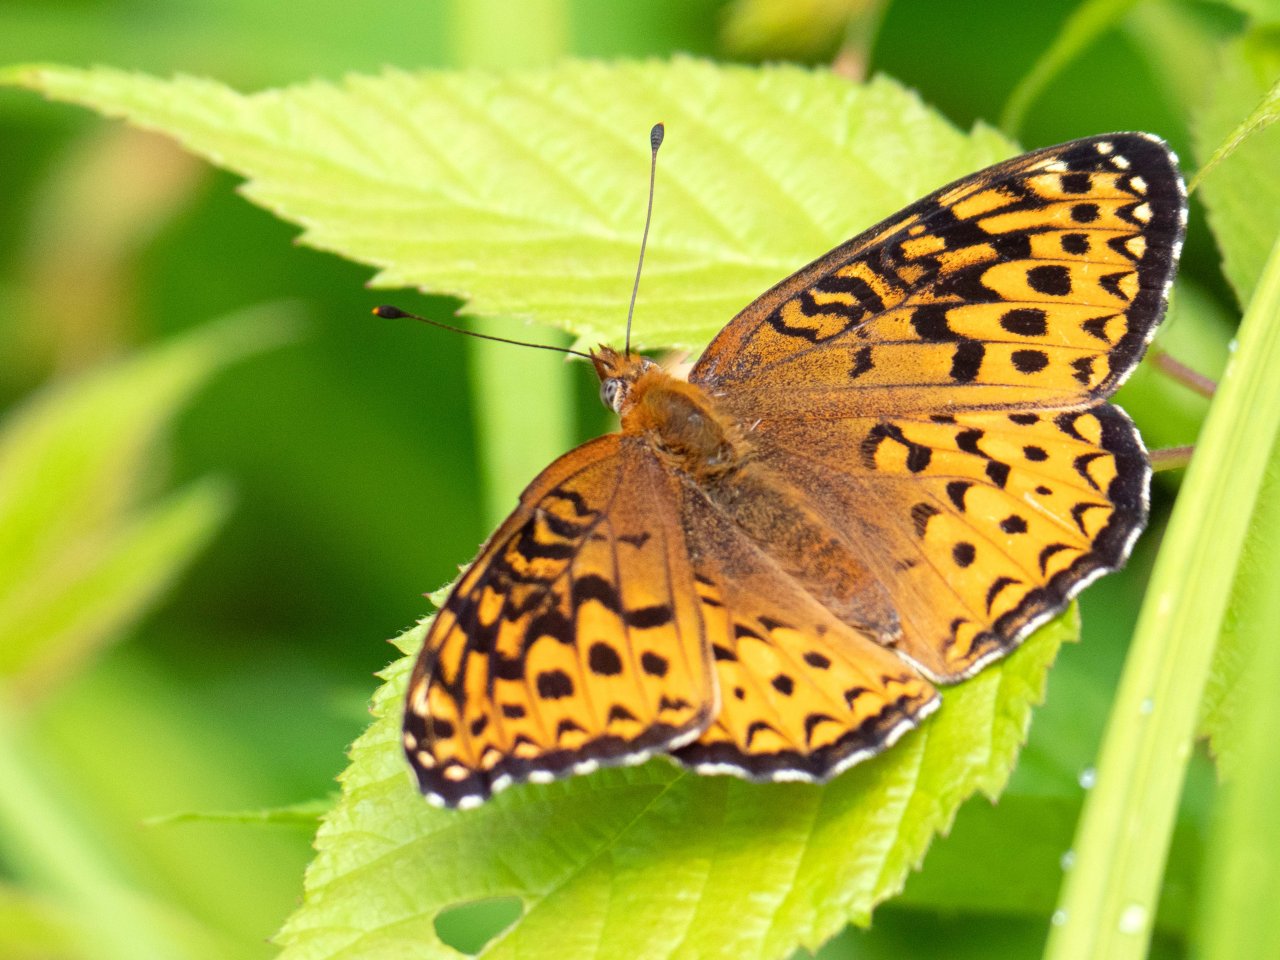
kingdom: Animalia
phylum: Arthropoda
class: Insecta
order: Lepidoptera
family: Nymphalidae
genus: Speyeria
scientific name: Speyeria atlantis
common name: Atlantis Fritillary
